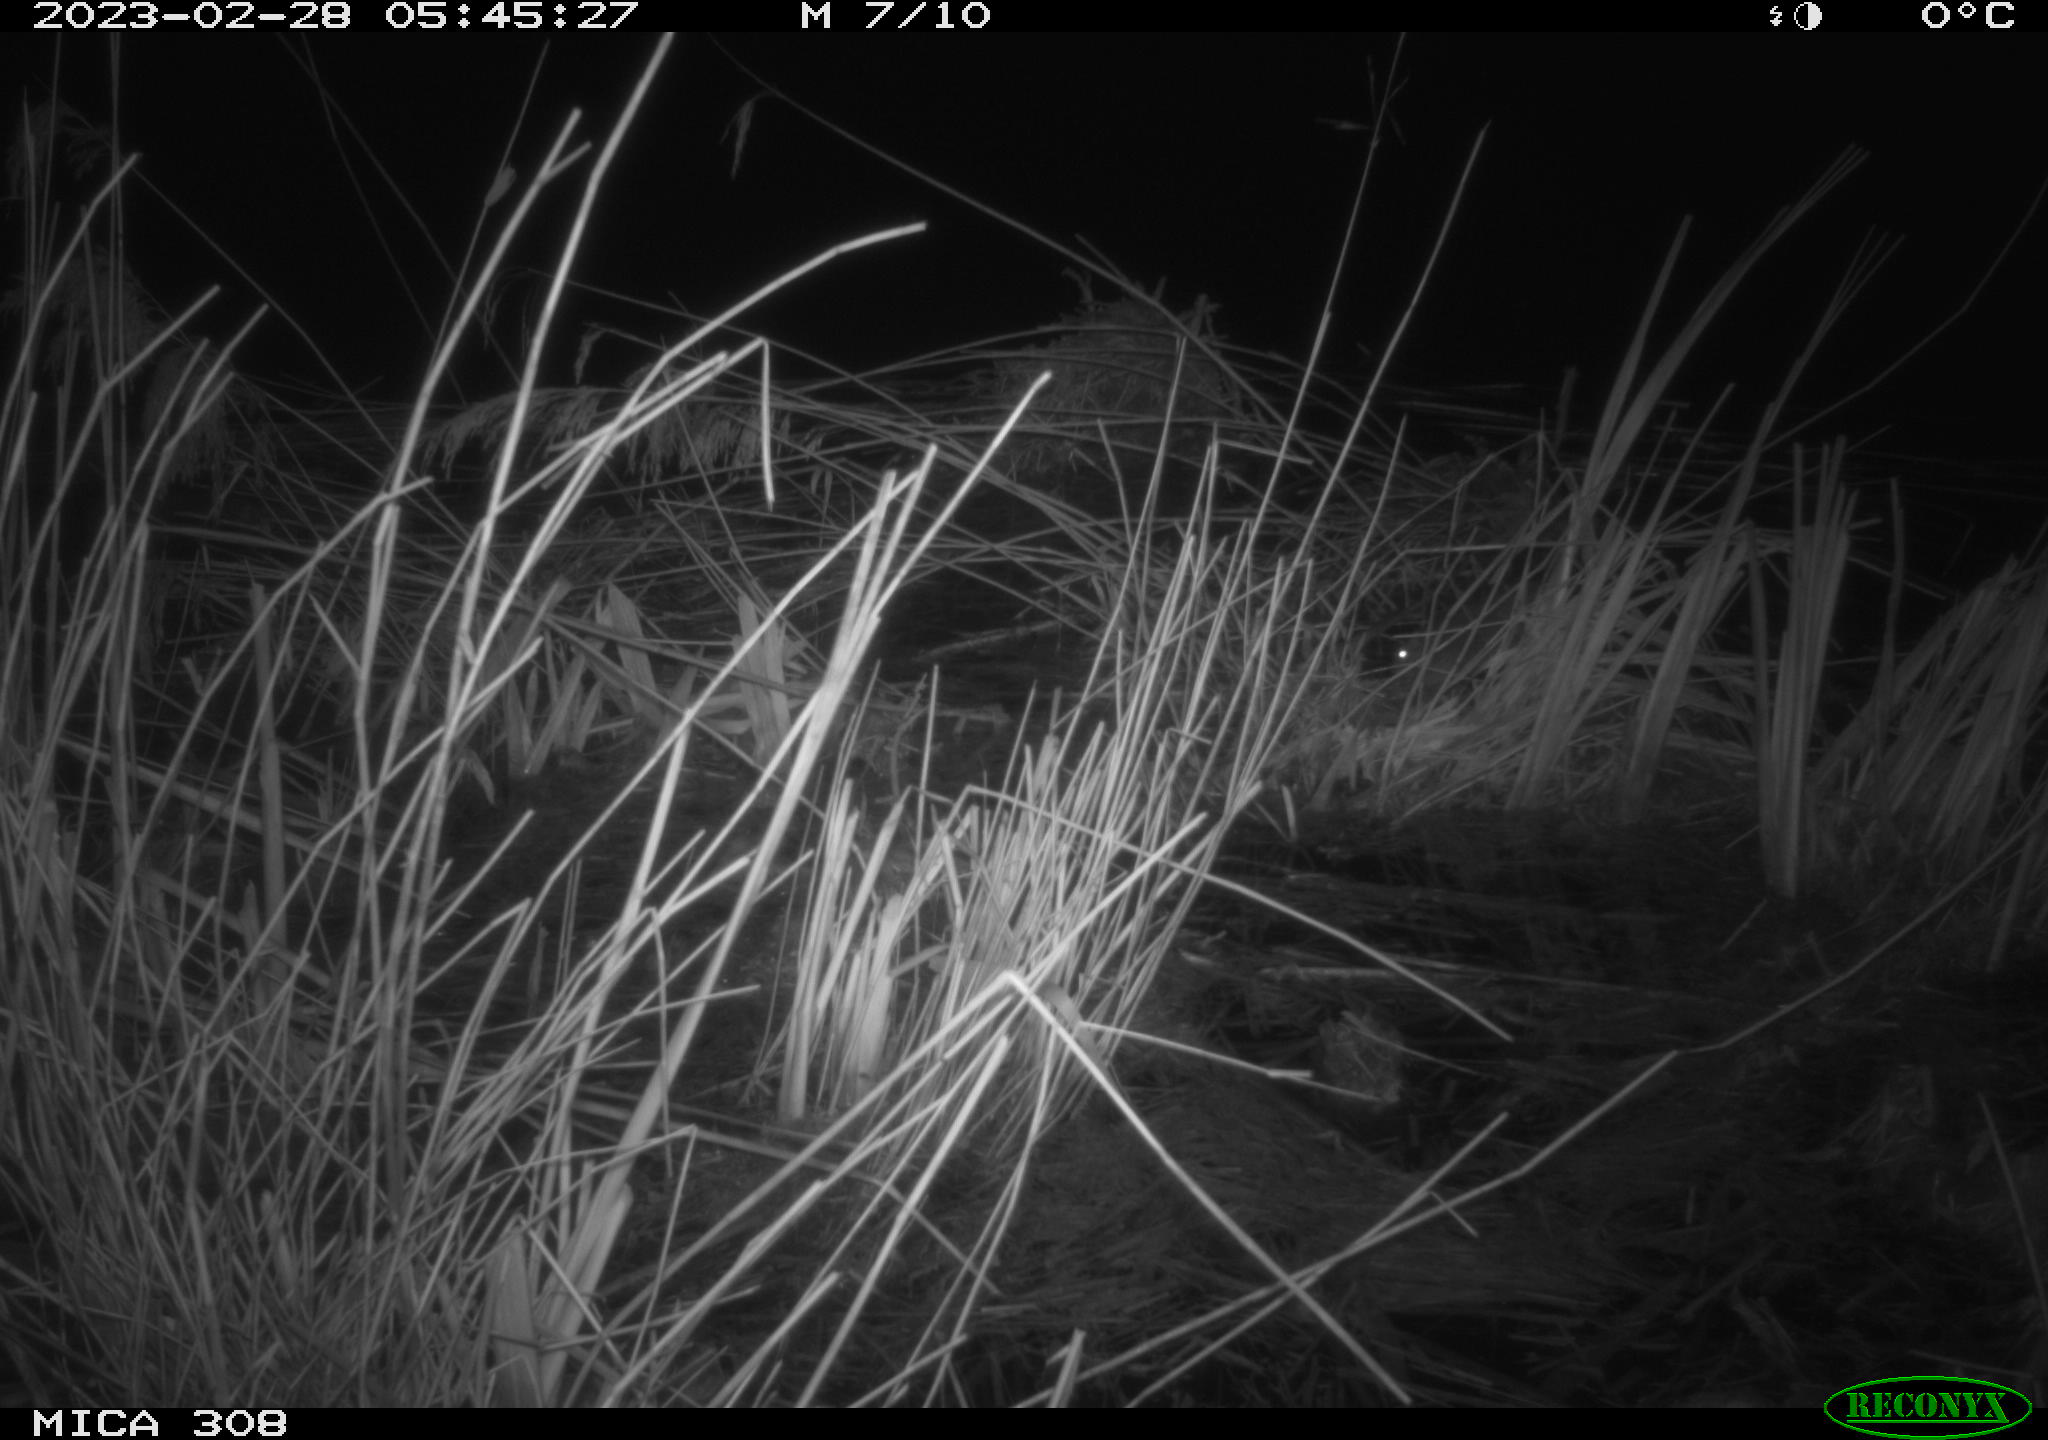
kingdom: Animalia
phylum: Chordata
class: Mammalia
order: Rodentia
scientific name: Rodentia
